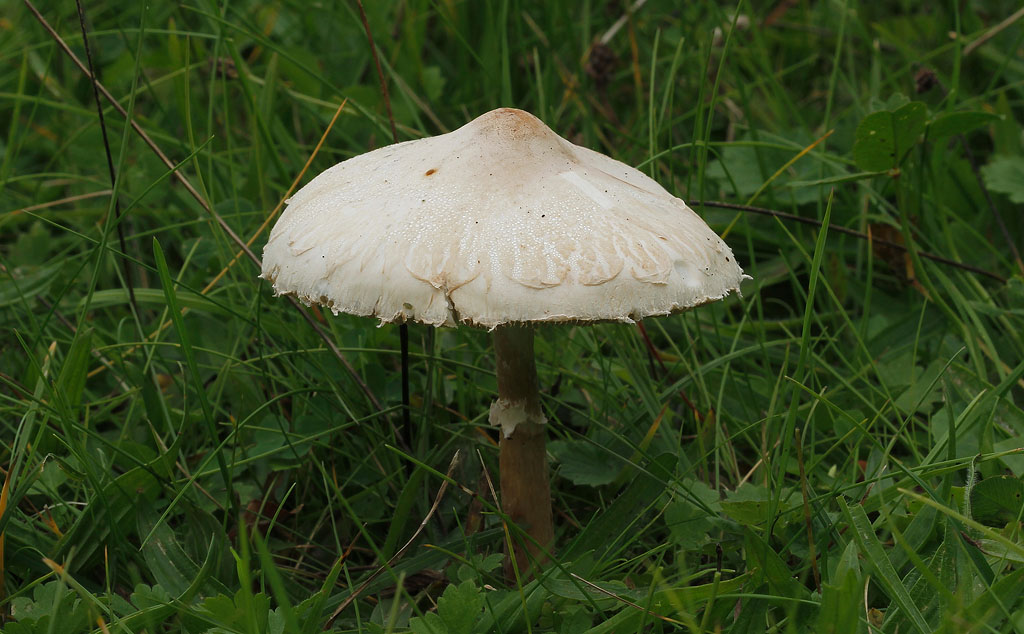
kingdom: Fungi
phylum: Basidiomycota
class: Agaricomycetes
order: Agaricales
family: Agaricaceae
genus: Macrolepiota
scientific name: Macrolepiota excoriata
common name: mark-kæmpeparasolhat
